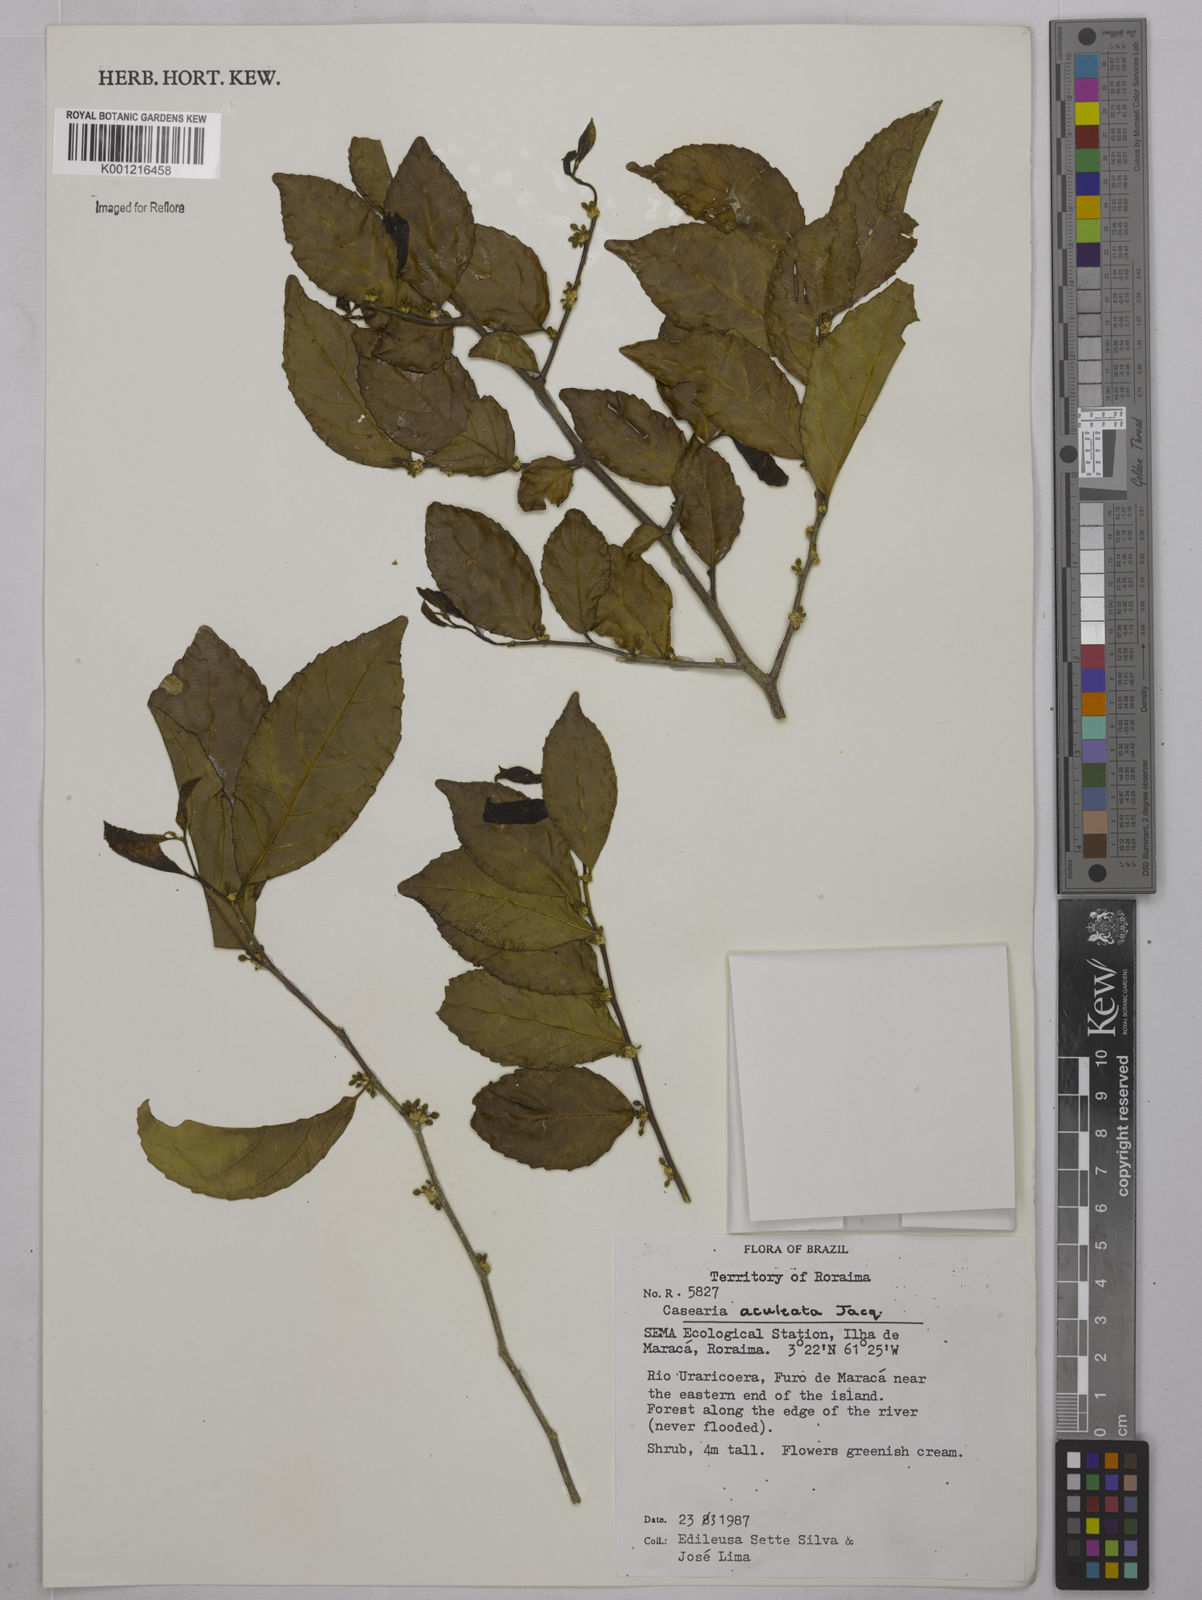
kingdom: Plantae
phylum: Tracheophyta
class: Magnoliopsida
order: Malpighiales
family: Salicaceae
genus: Casearia
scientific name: Casearia aculeata
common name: Cockspur
